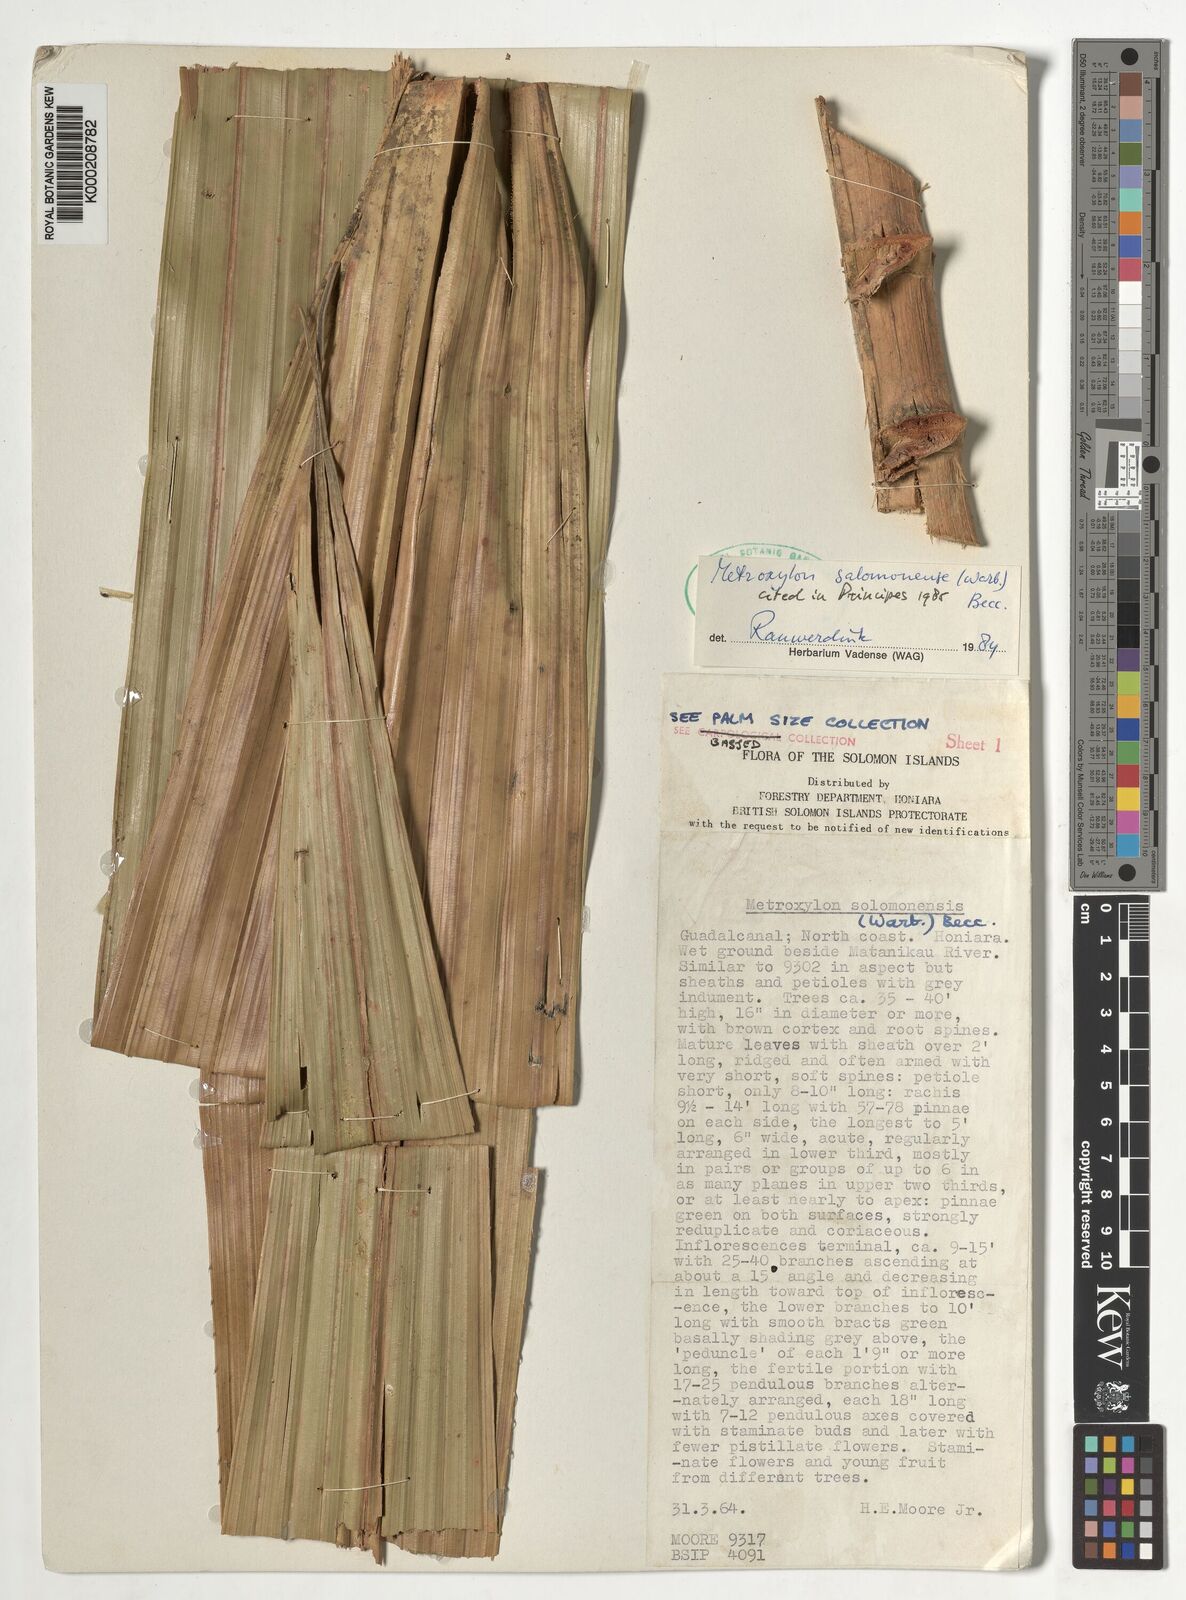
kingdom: Plantae
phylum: Tracheophyta
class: Liliopsida
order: Arecales
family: Arecaceae
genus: Metroxylon
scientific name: Metroxylon salomonense
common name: Solomon's sago palm
